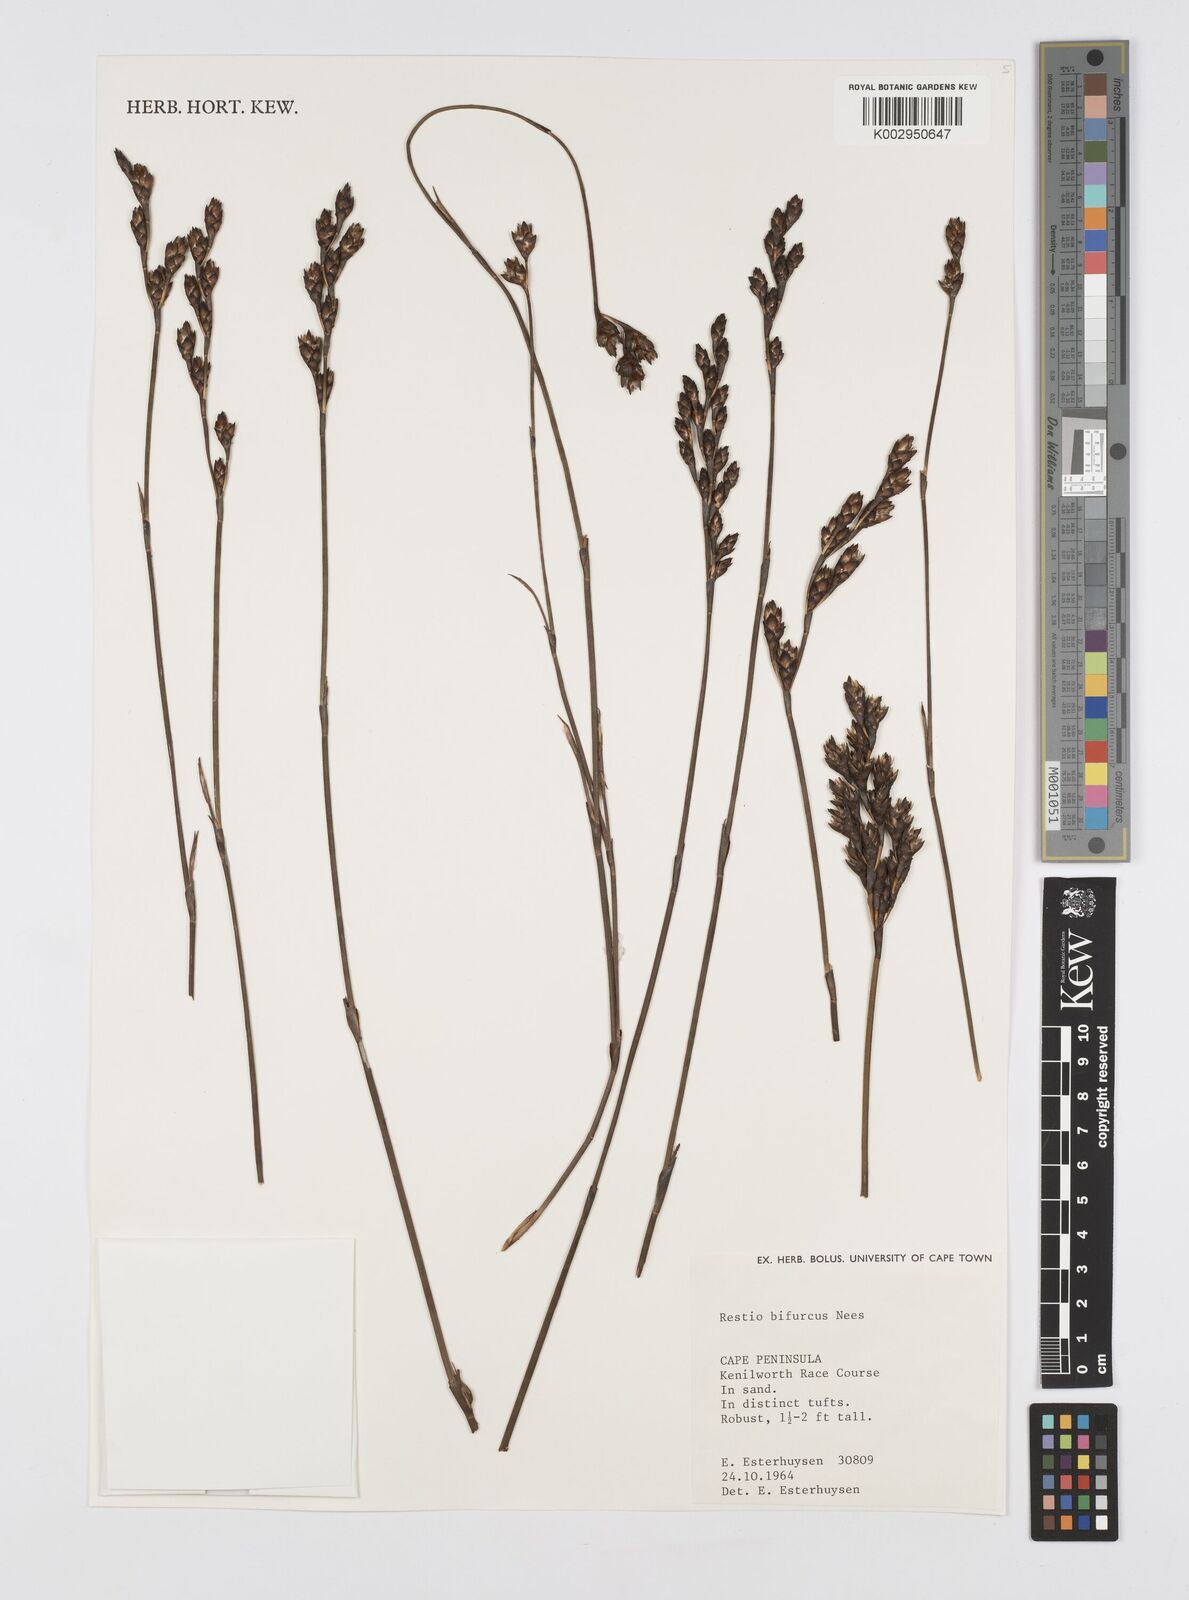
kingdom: Plantae
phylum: Tracheophyta
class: Liliopsida
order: Poales
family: Restionaceae
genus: Restio
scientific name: Restio bifurcus
